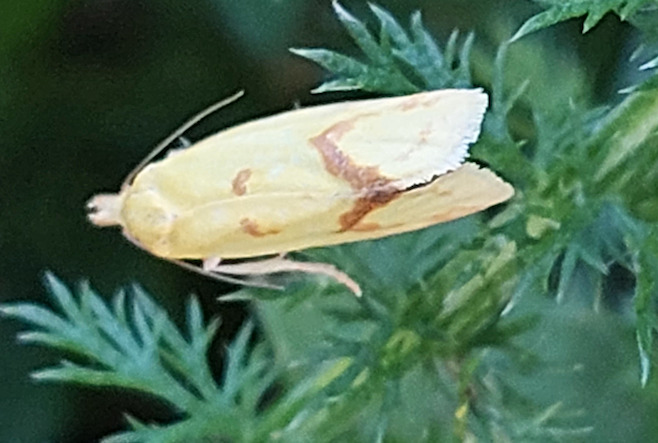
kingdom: Animalia
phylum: Arthropoda
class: Insecta
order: Lepidoptera
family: Tortricidae
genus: Agapeta
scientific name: Agapeta hamana
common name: Tidselgulvikler
